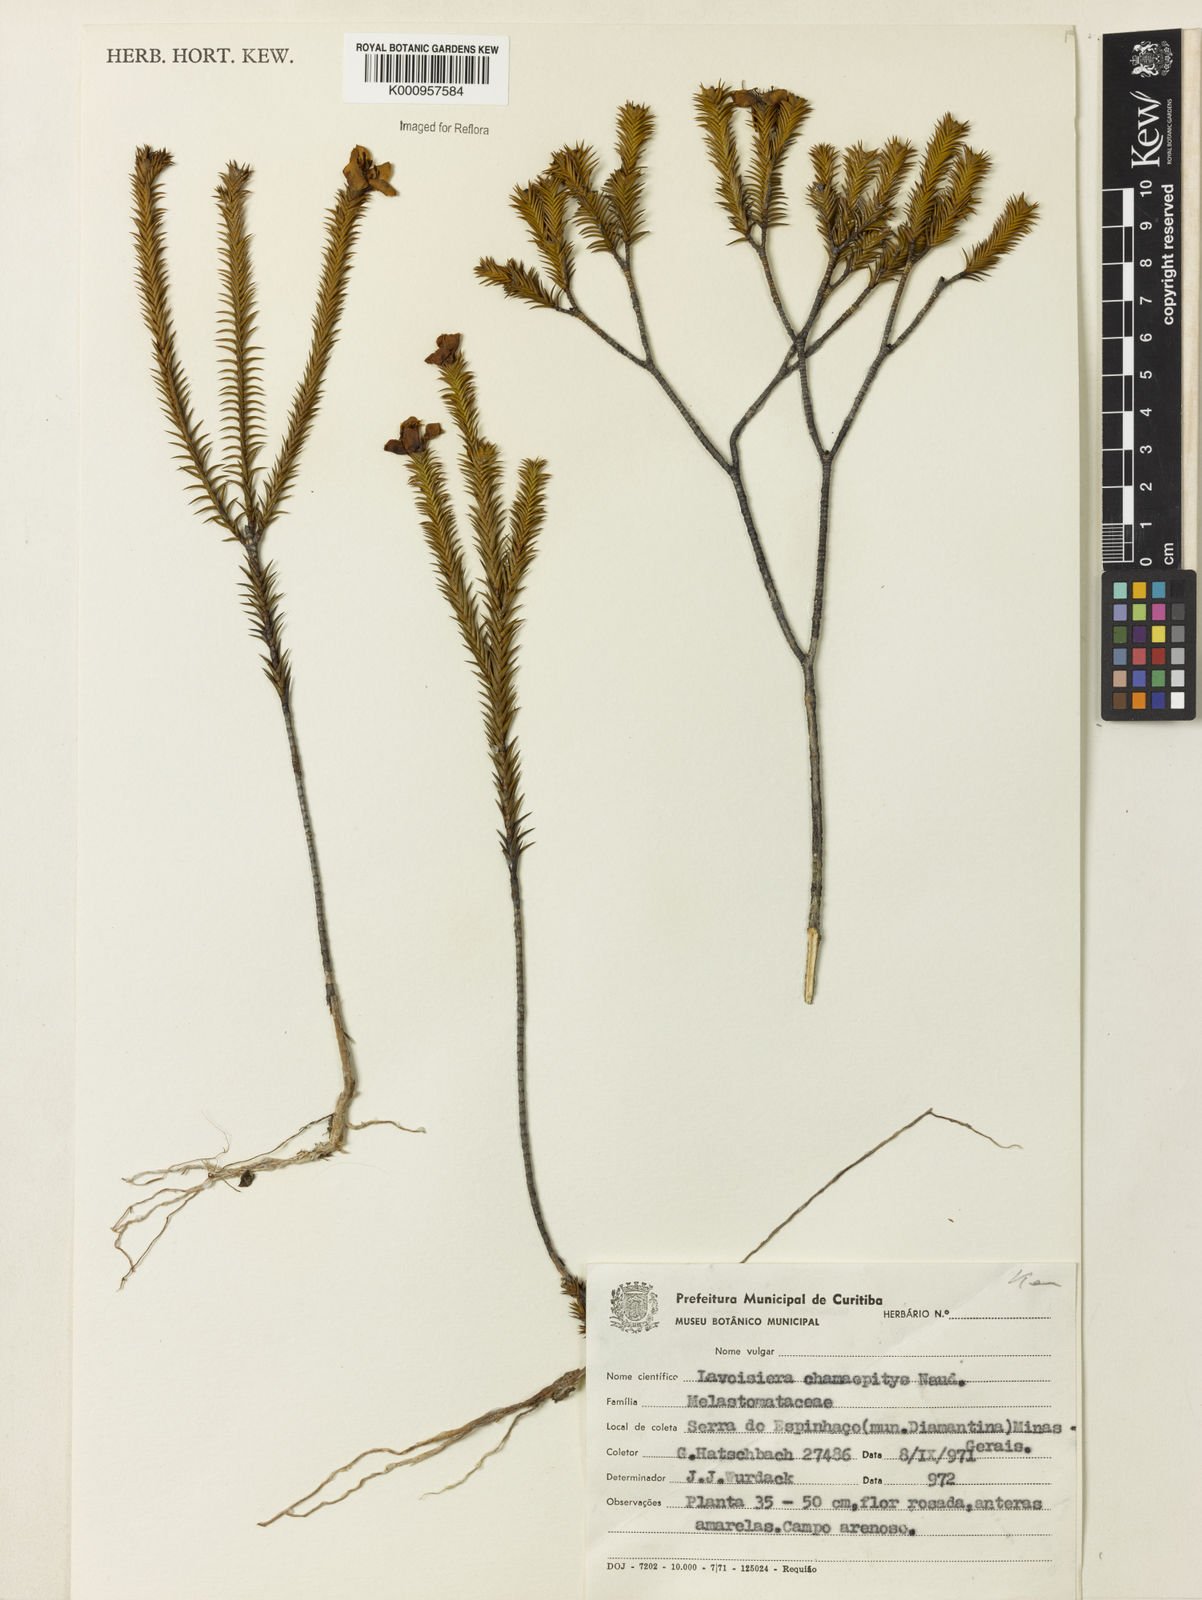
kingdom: Plantae
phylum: Tracheophyta
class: Magnoliopsida
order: Myrtales
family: Melastomataceae
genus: Microlicia
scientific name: Microlicia hilairei
